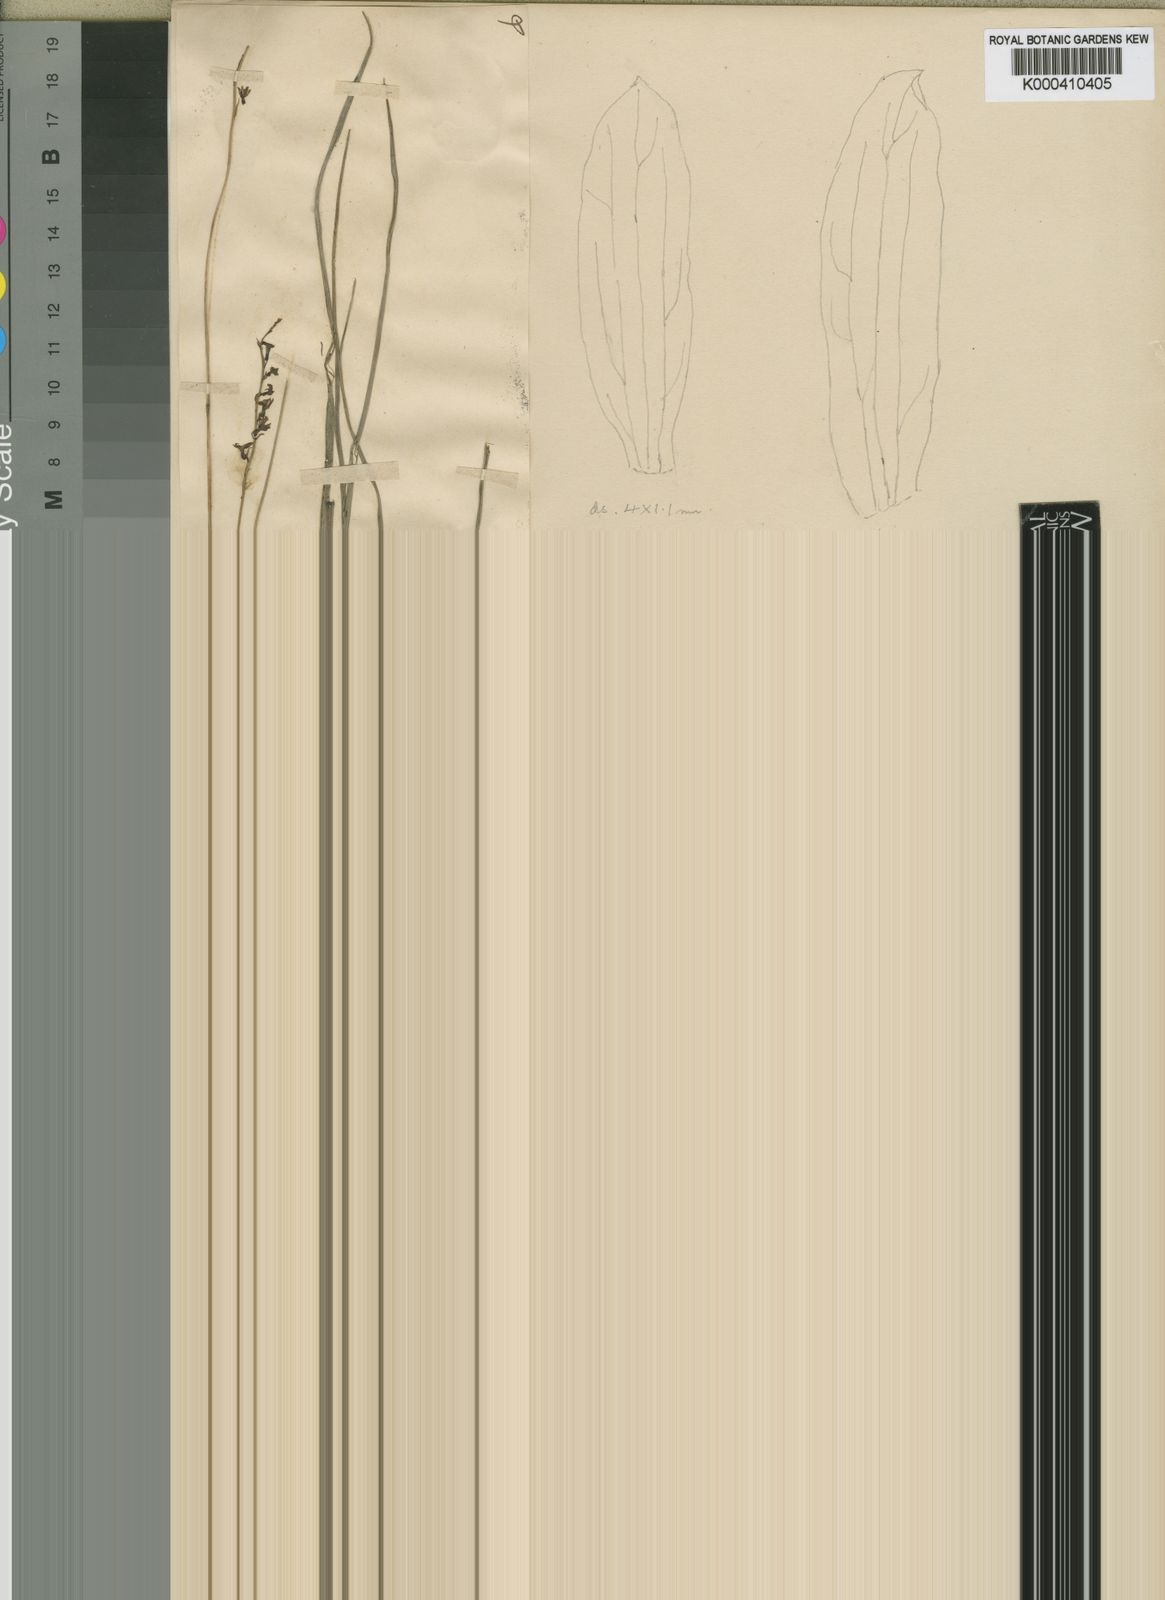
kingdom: Plantae
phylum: Tracheophyta
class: Liliopsida
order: Asparagales
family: Orchidaceae
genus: Eulophia
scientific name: Eulophia milnei
